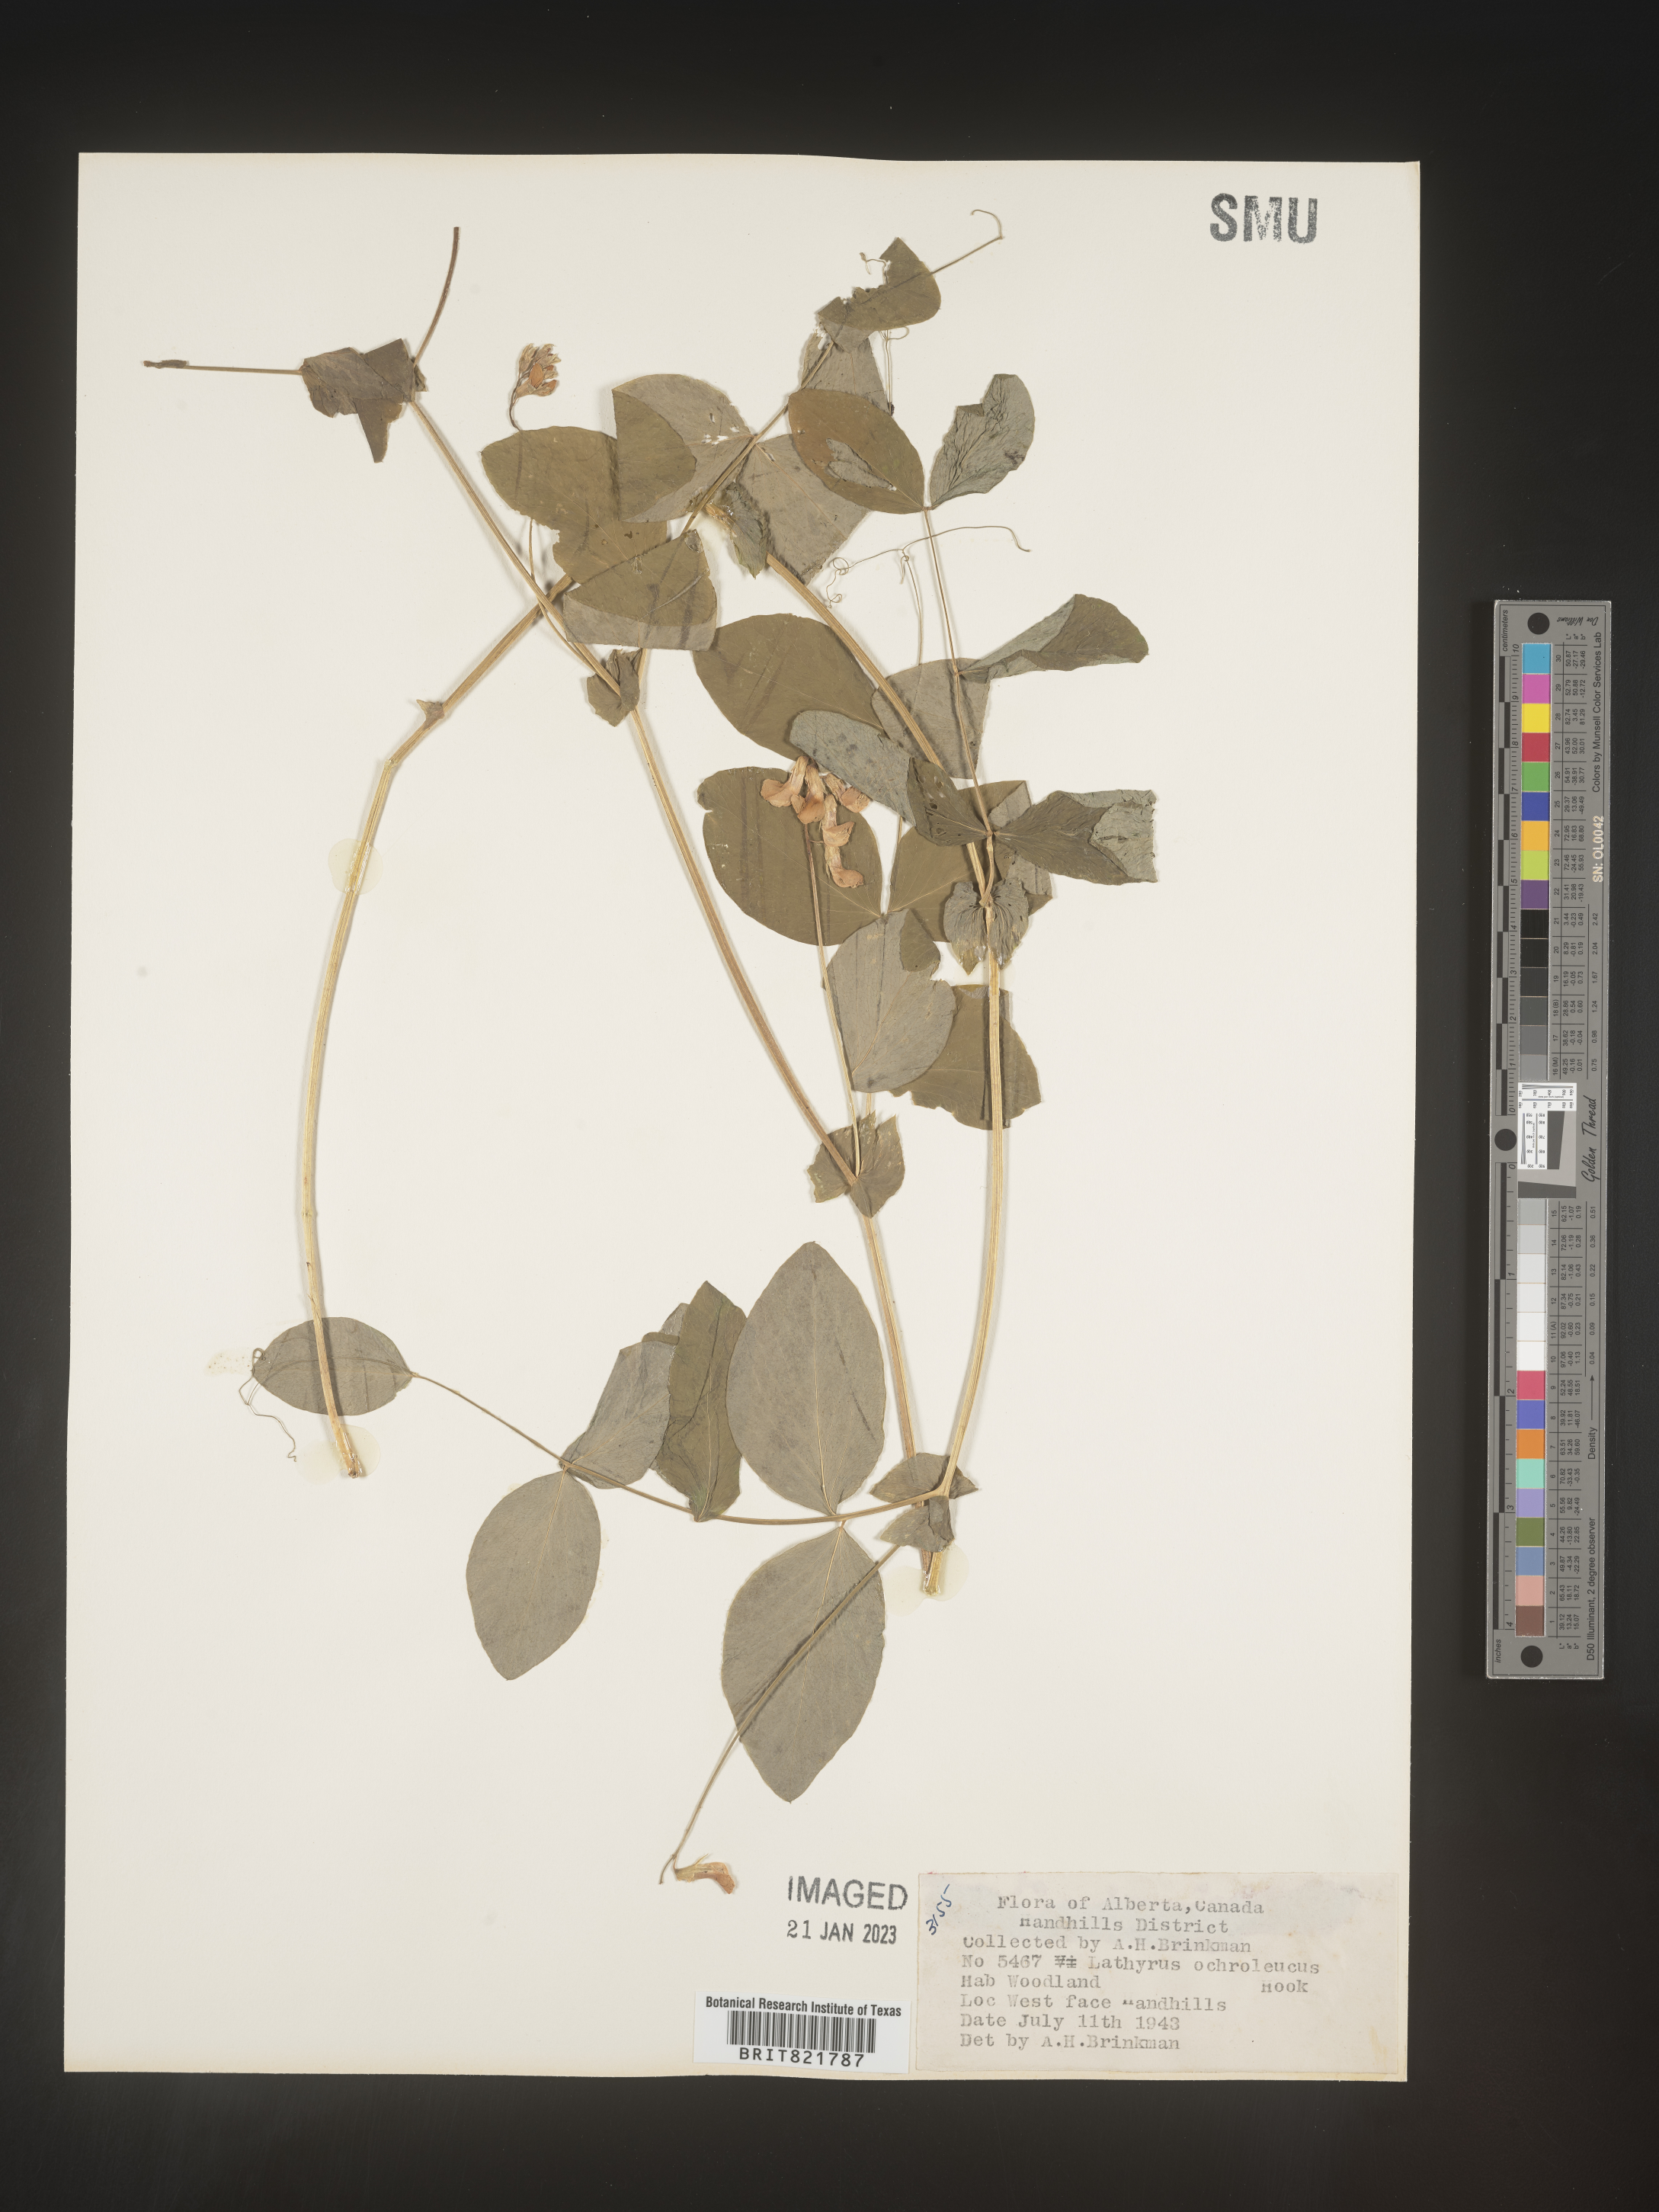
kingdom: Plantae
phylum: Tracheophyta
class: Magnoliopsida
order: Fabales
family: Fabaceae
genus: Lathyrus
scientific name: Lathyrus
